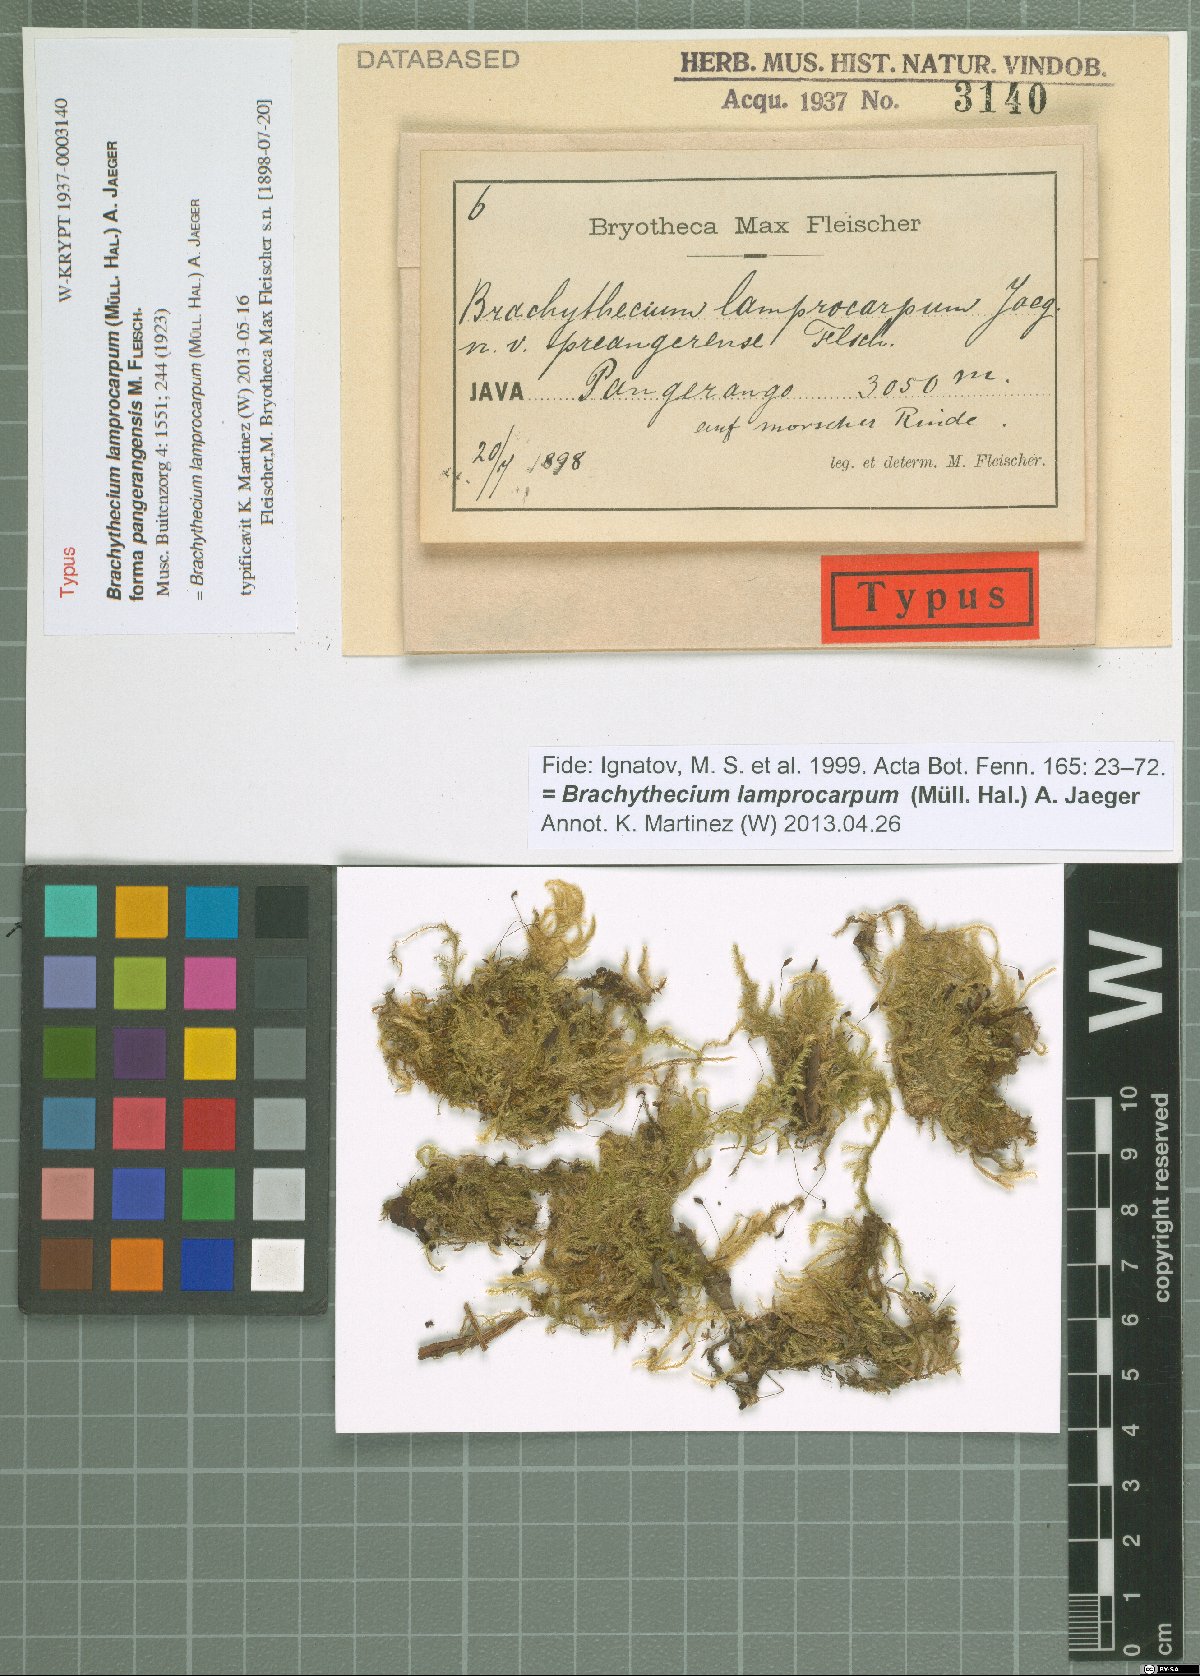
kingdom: Plantae
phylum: Bryophyta
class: Bryopsida
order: Hypnales
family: Brachytheciaceae
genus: Brachythecium
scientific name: Brachythecium lamprocarpum
